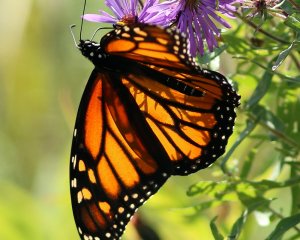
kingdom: Animalia
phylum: Arthropoda
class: Insecta
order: Lepidoptera
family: Nymphalidae
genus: Danaus
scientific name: Danaus plexippus
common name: Monarch
